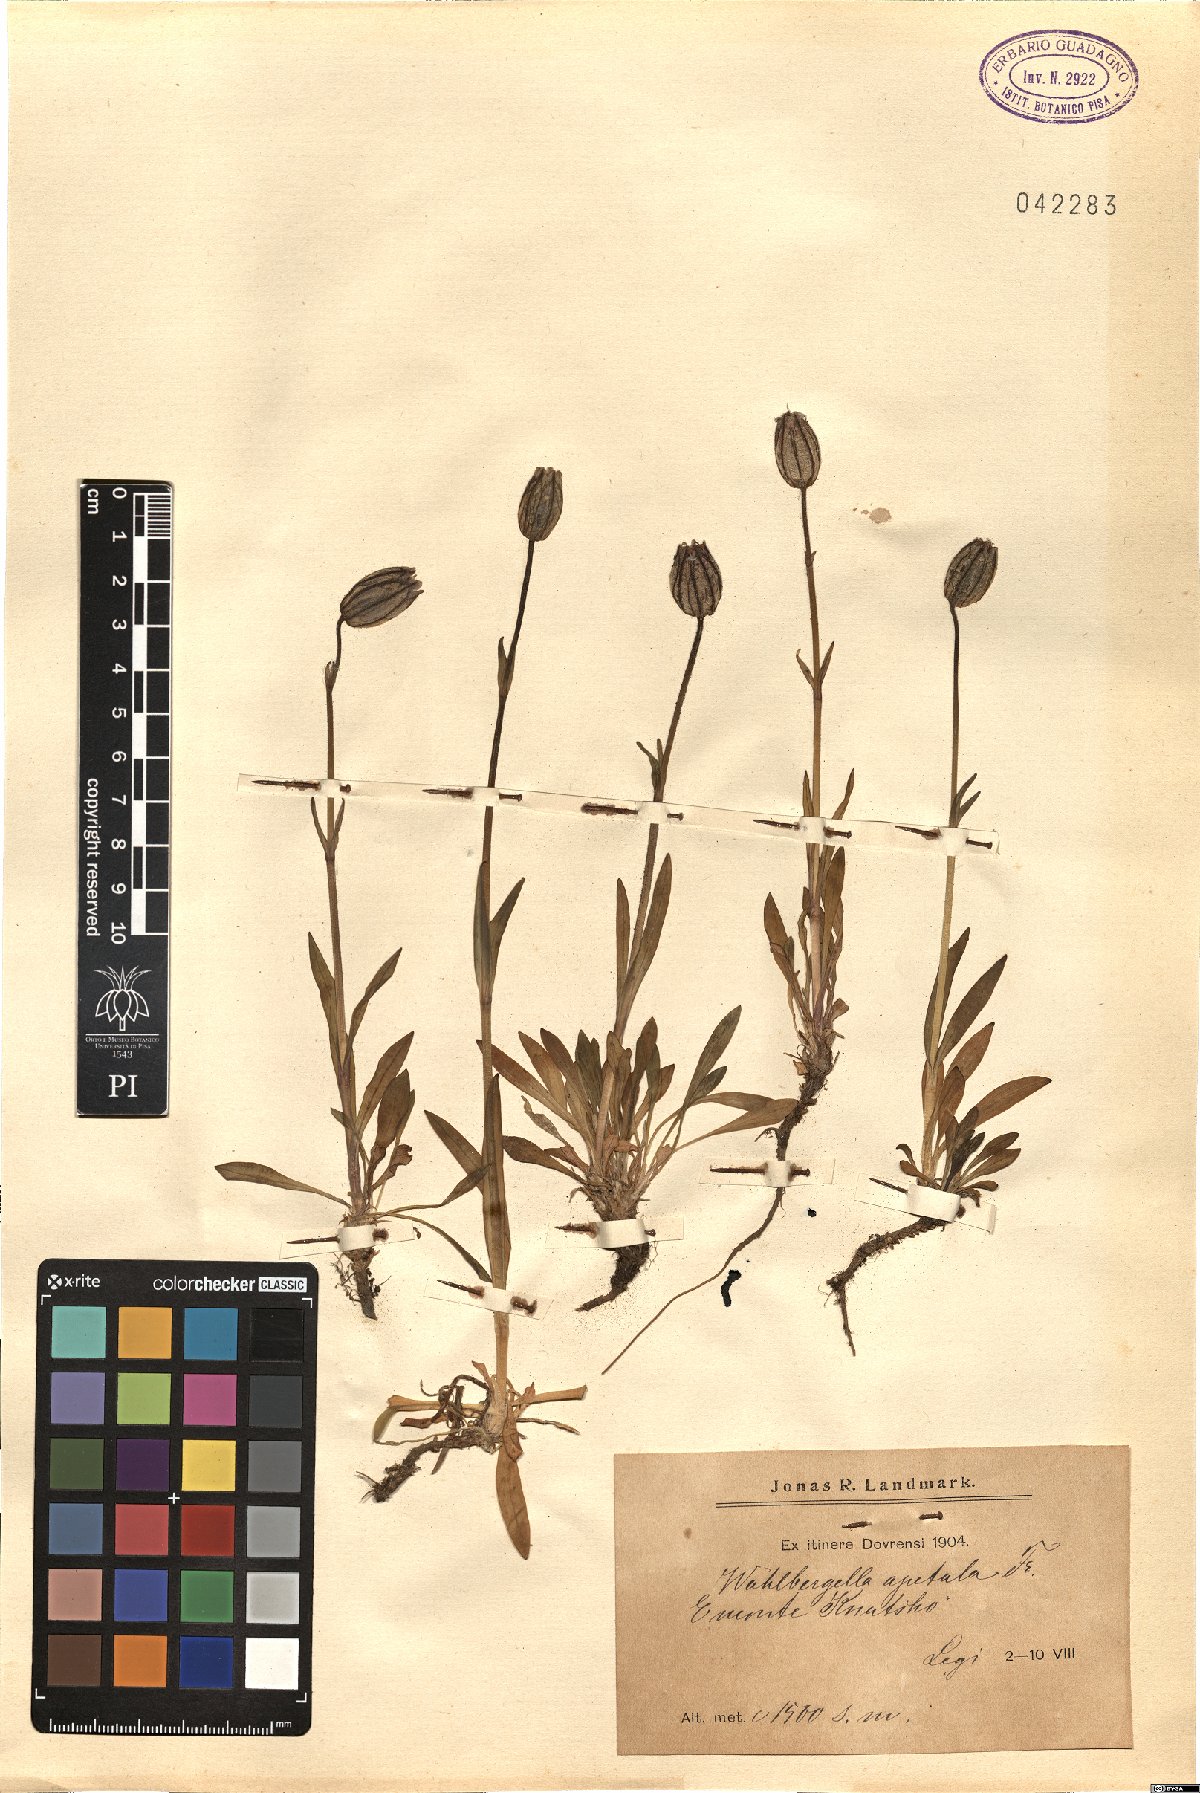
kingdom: Plantae
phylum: Tracheophyta
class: Magnoliopsida
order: Caryophyllales
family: Caryophyllaceae
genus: Silene
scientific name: Silene wahlbergella
